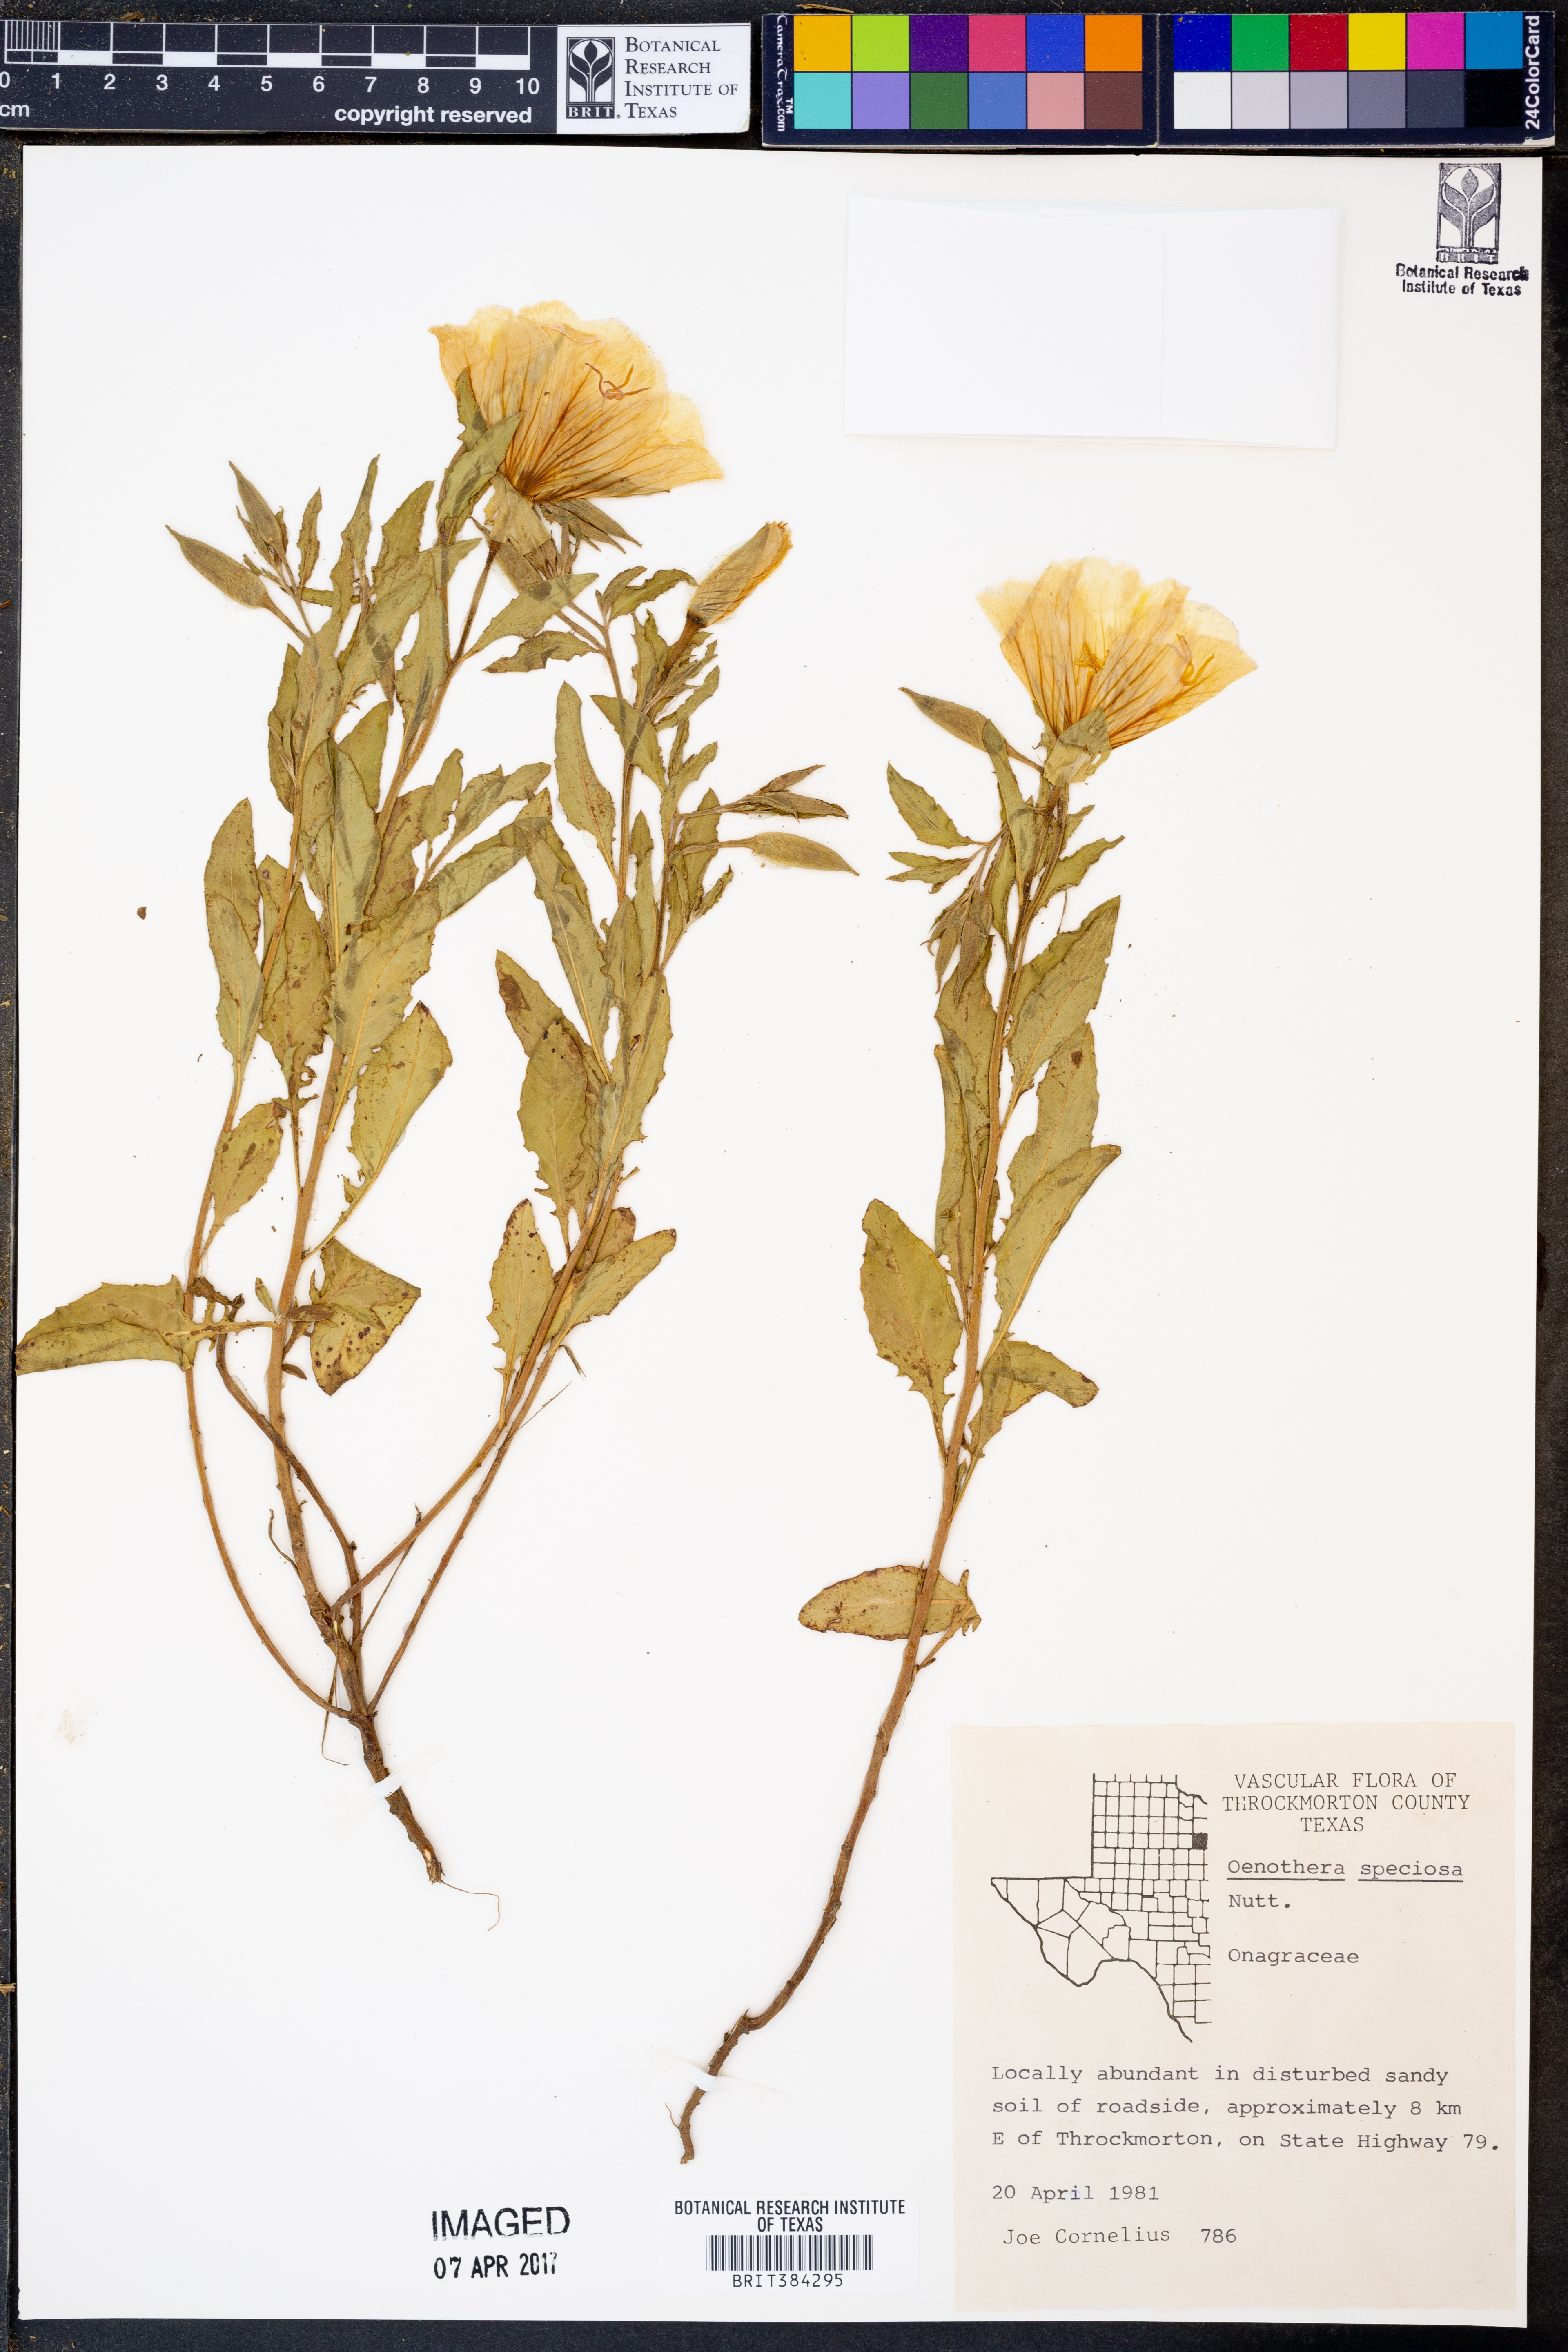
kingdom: Plantae
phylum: Tracheophyta
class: Magnoliopsida
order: Myrtales
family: Onagraceae
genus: Oenothera
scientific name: Oenothera speciosa
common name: White evening-primrose
